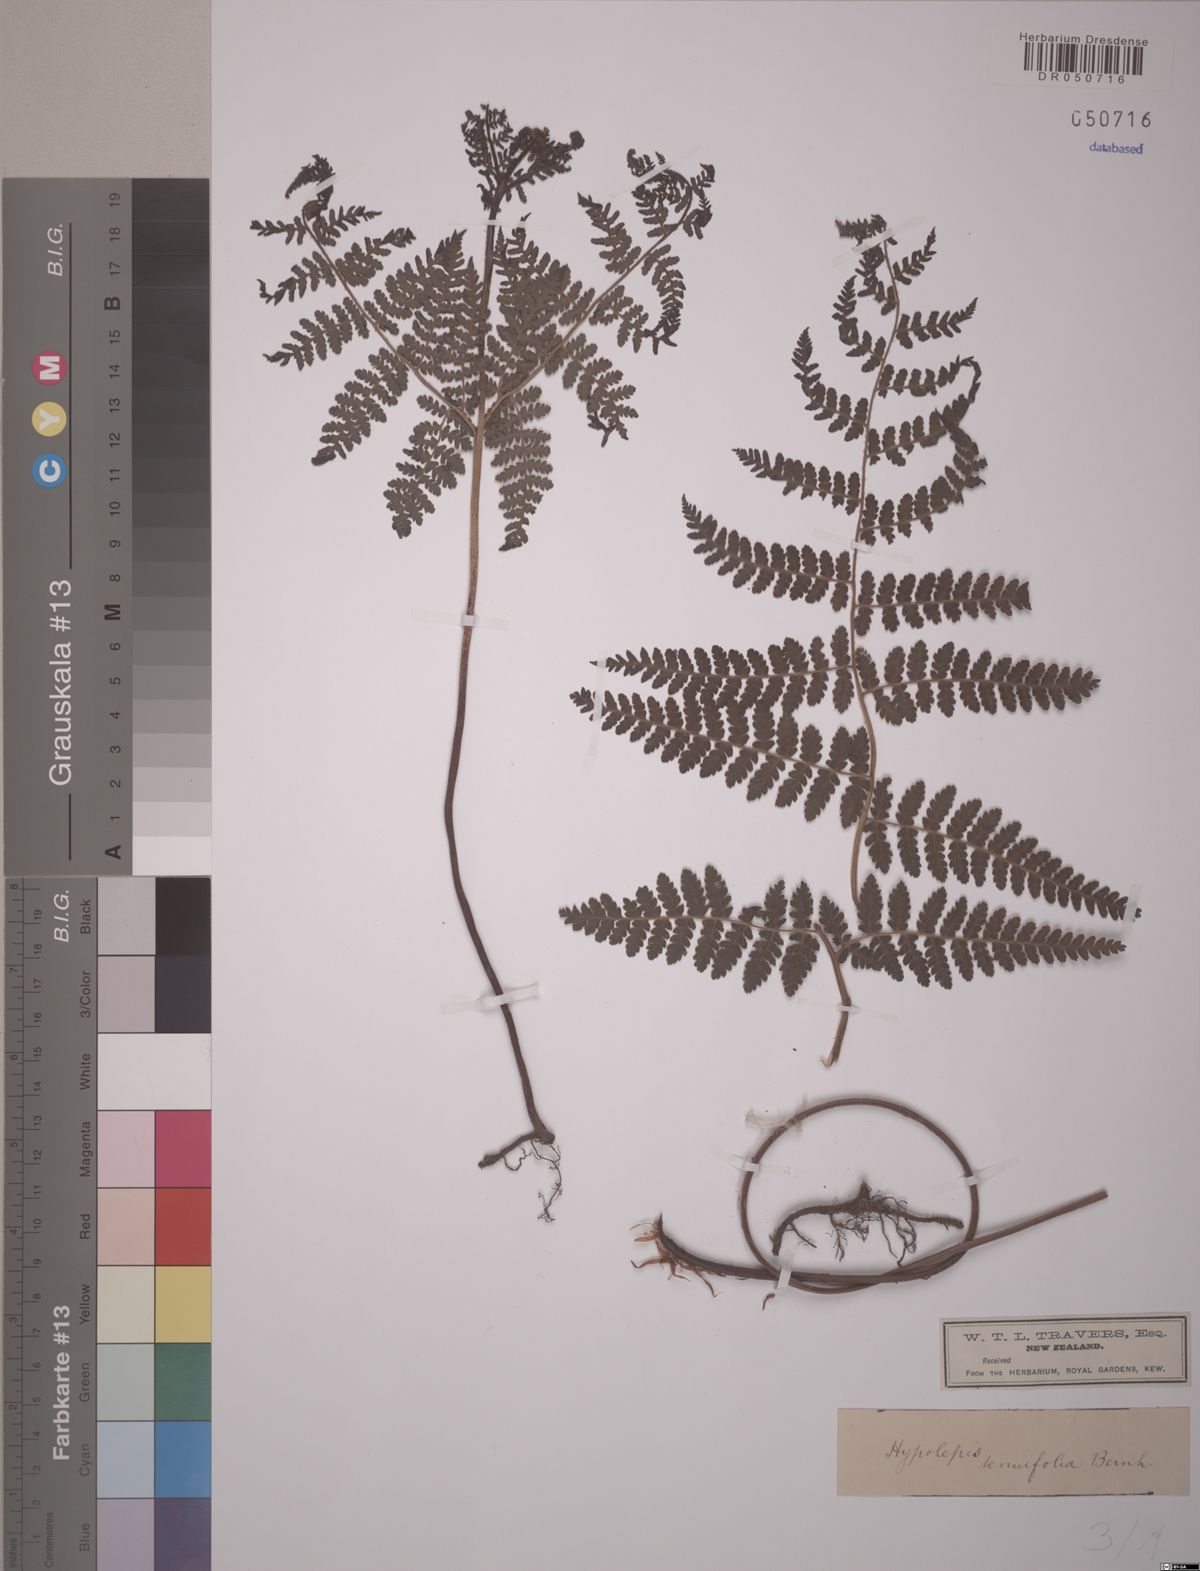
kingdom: Plantae
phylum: Tracheophyta
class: Polypodiopsida
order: Polypodiales
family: Dennstaedtiaceae
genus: Hypolepis
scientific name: Hypolepis tenuifolia
